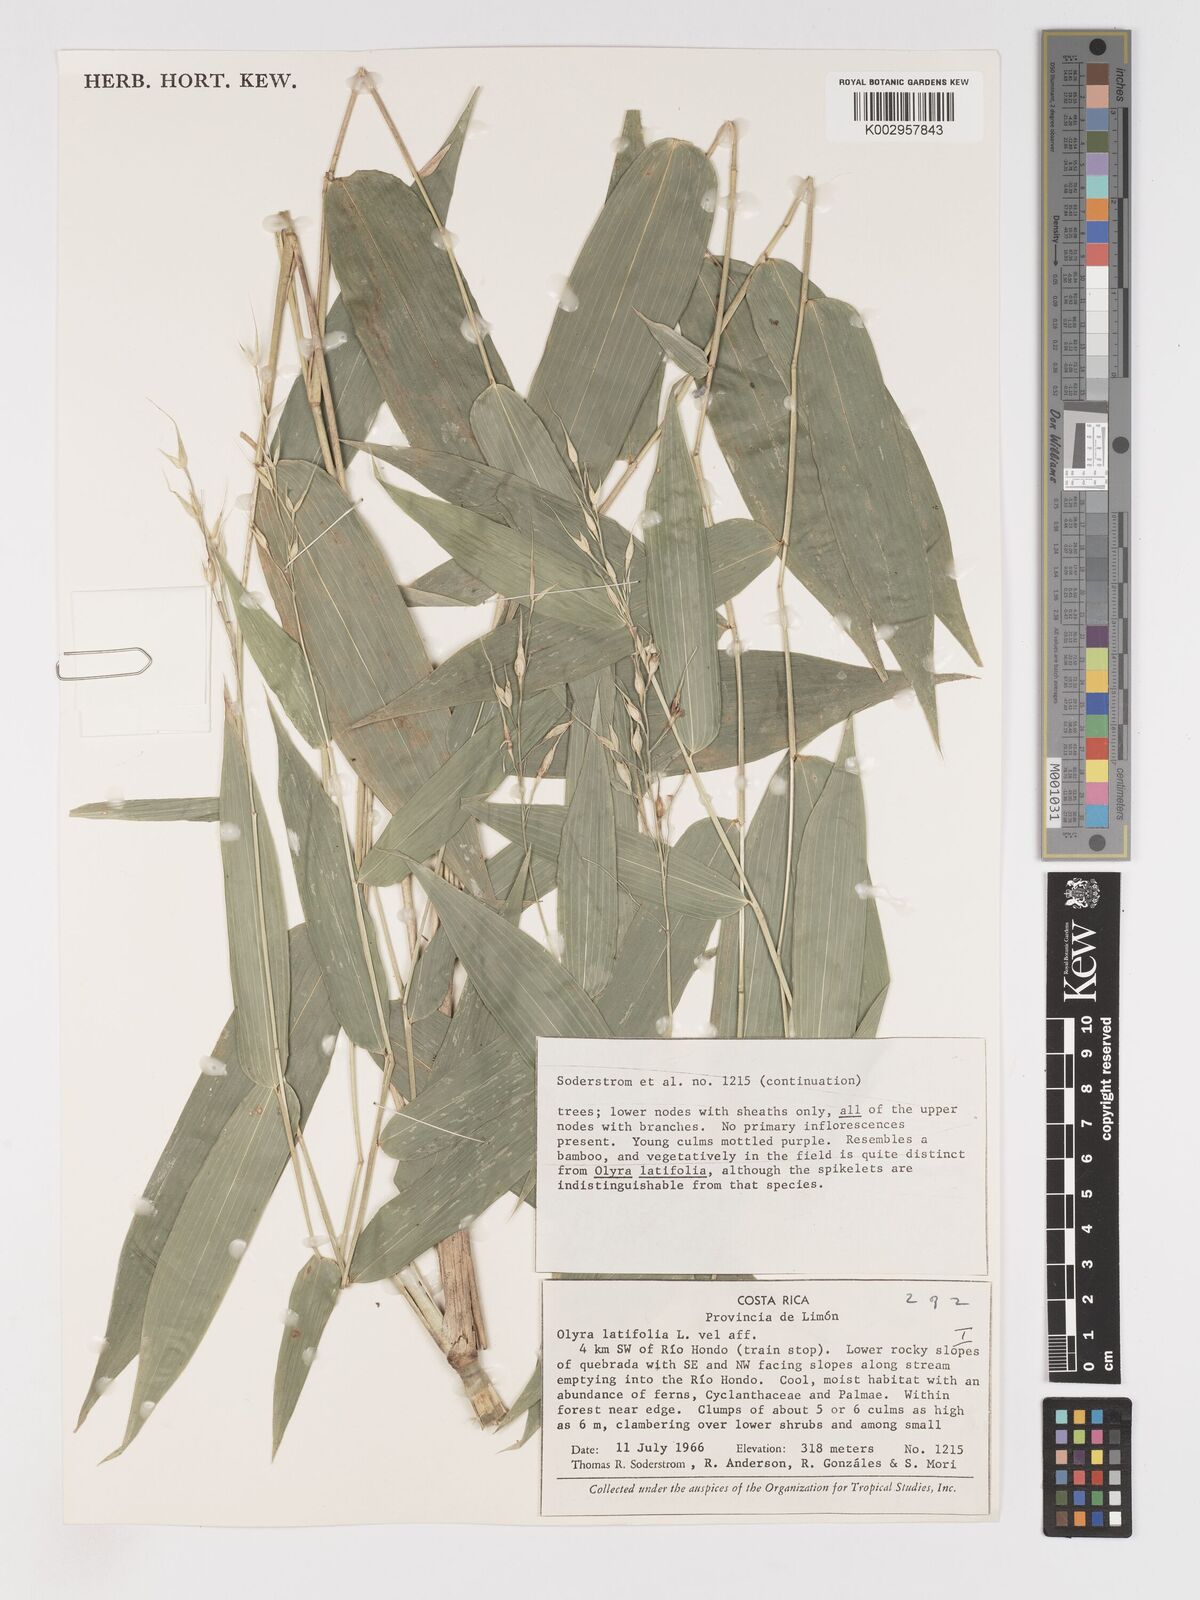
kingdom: Plantae
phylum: Tracheophyta
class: Liliopsida
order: Poales
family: Poaceae
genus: Olyra
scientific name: Olyra latifolia
